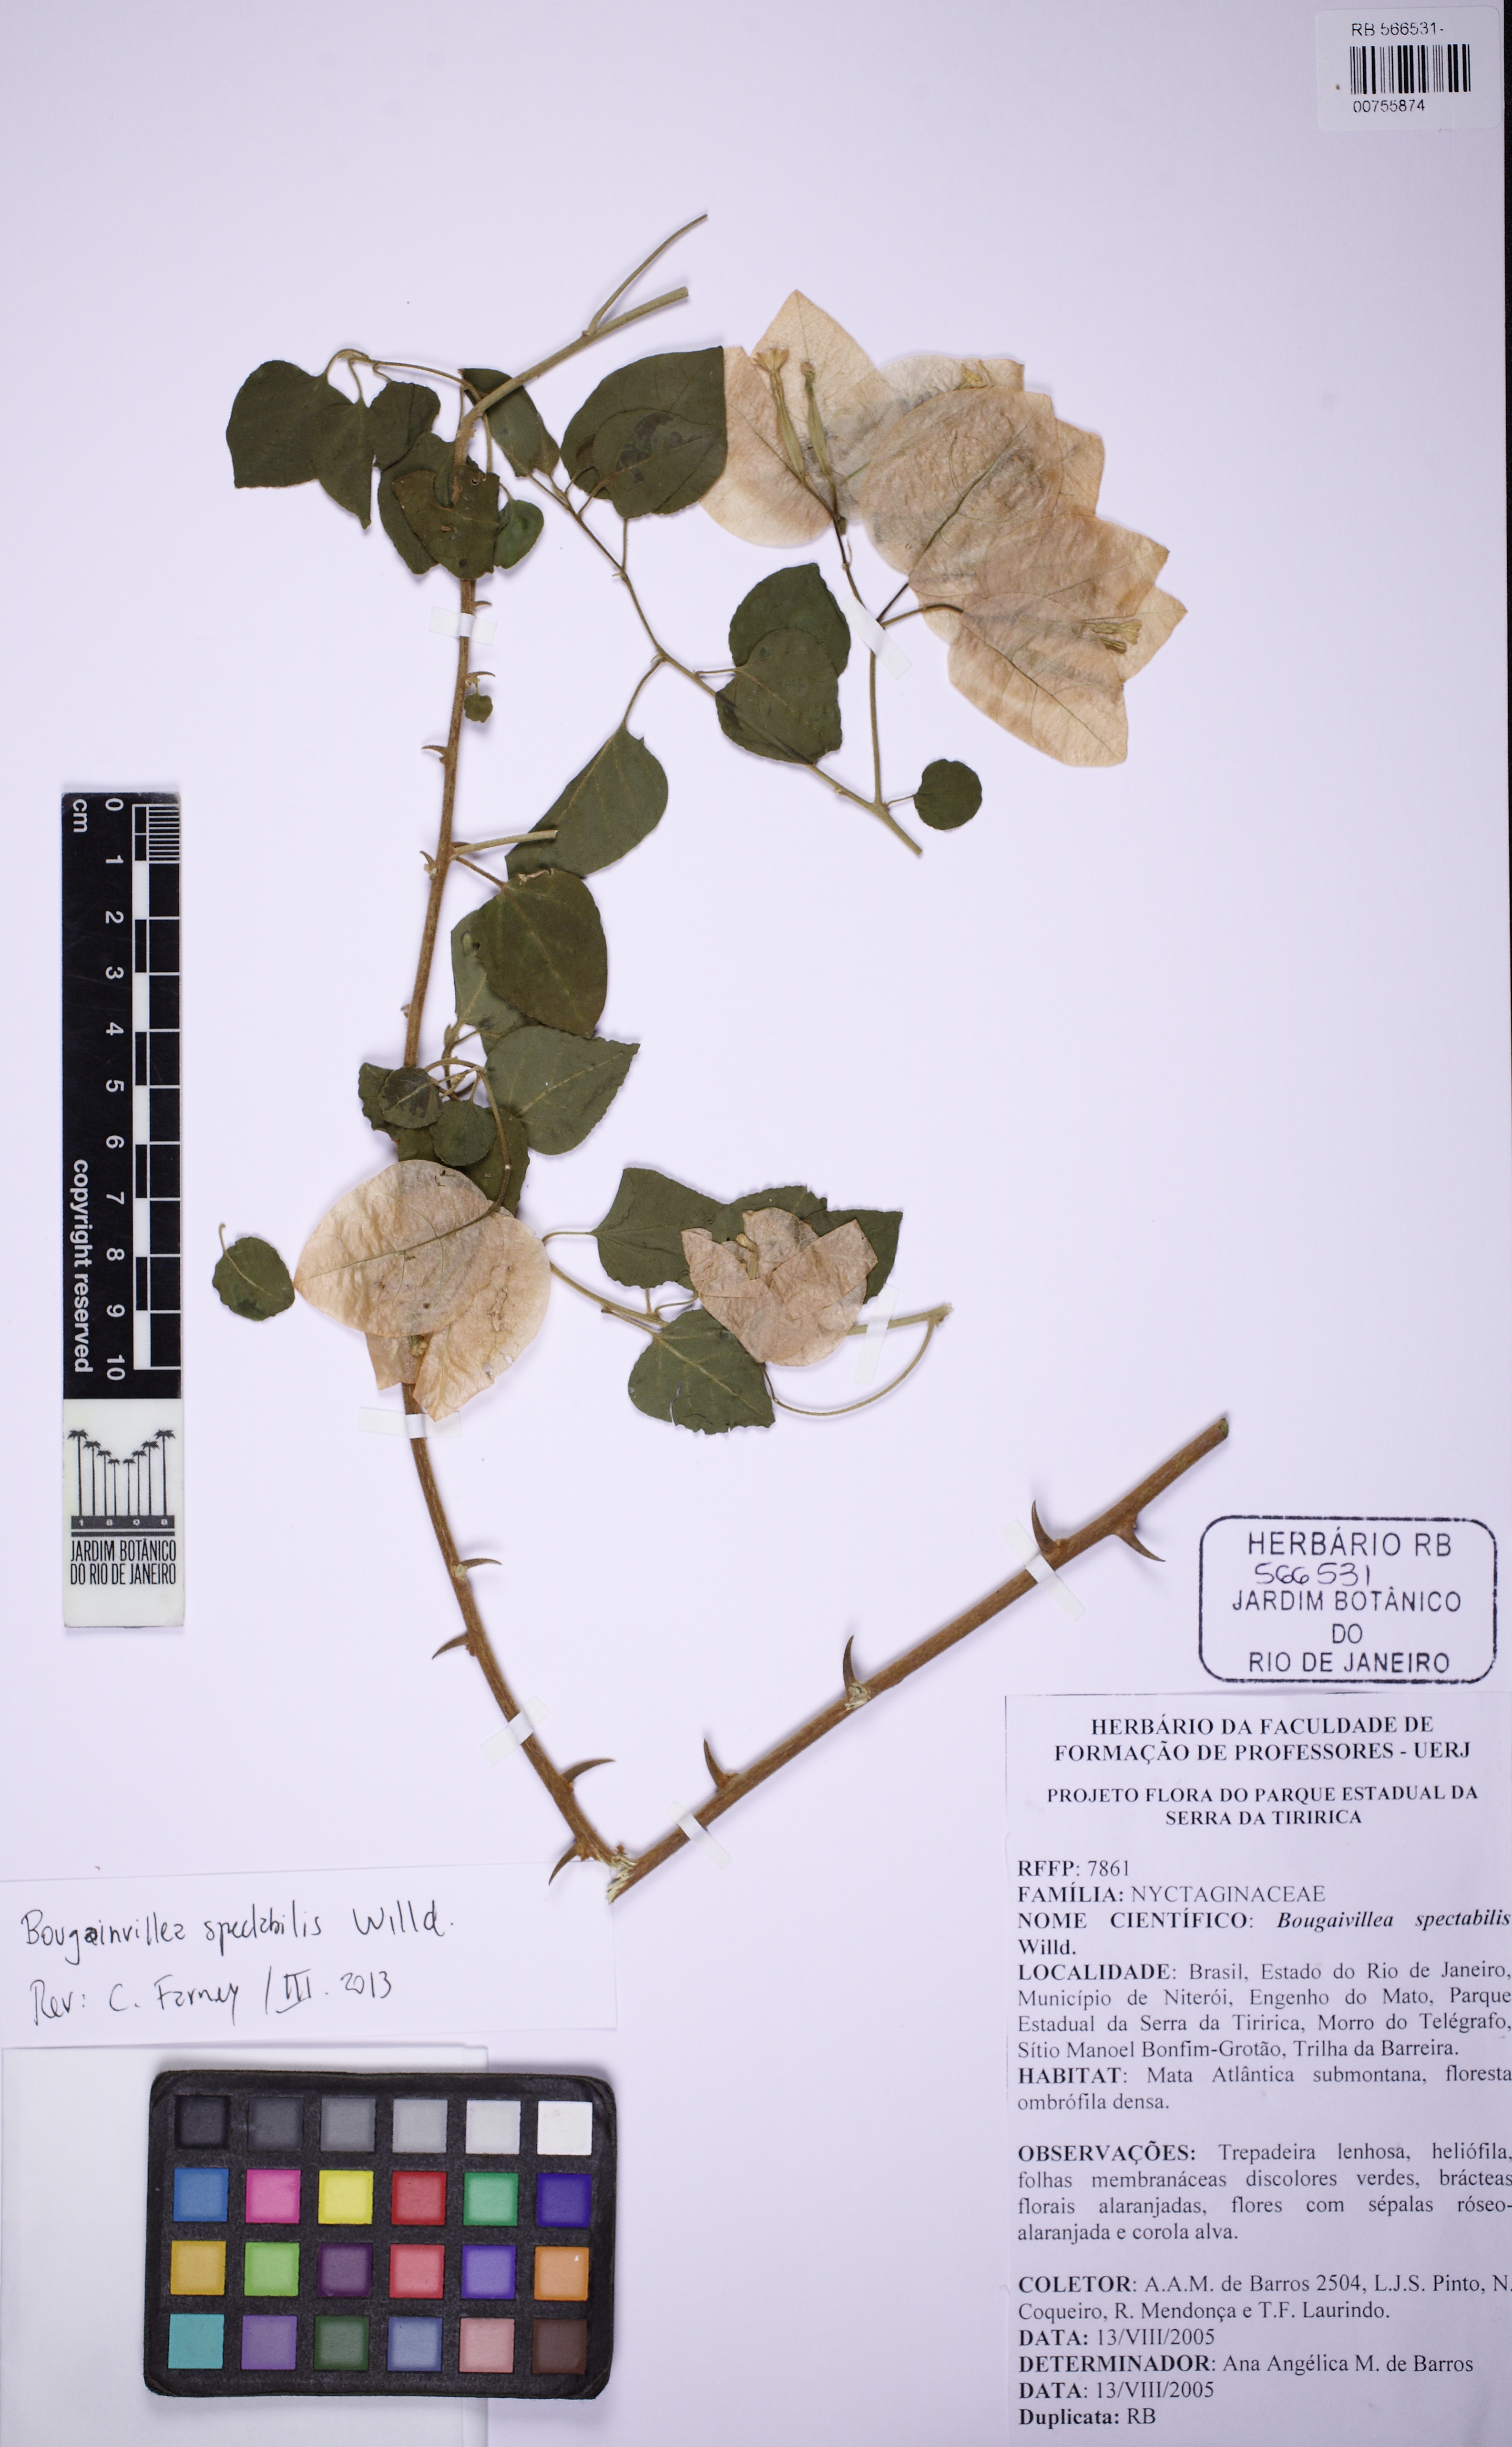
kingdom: Plantae
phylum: Tracheophyta
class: Magnoliopsida
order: Caryophyllales
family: Nyctaginaceae
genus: Bougainvillea
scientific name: Bougainvillea spectabilis
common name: Great bougainvillea
